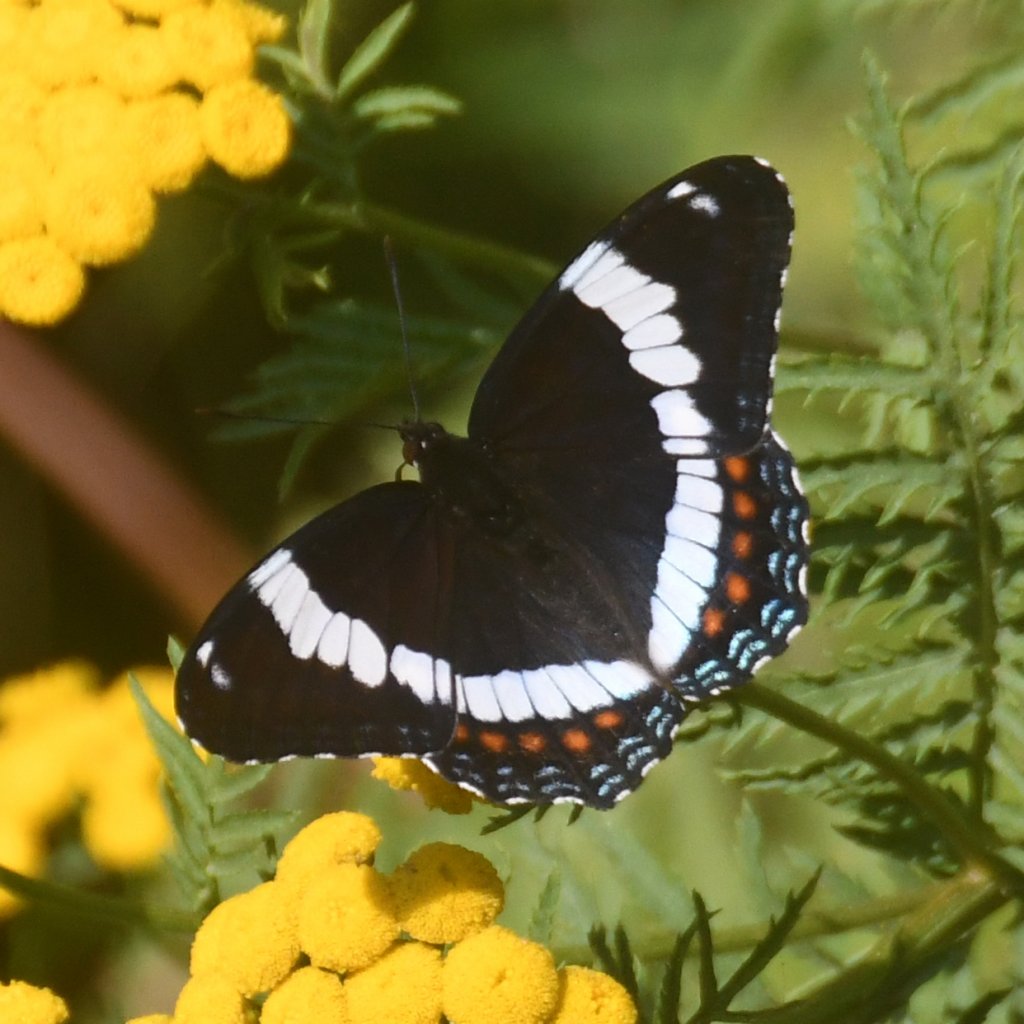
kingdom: Animalia
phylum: Arthropoda
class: Insecta
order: Lepidoptera
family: Nymphalidae
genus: Limenitis
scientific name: Limenitis arthemis
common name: Red-spotted Admiral
